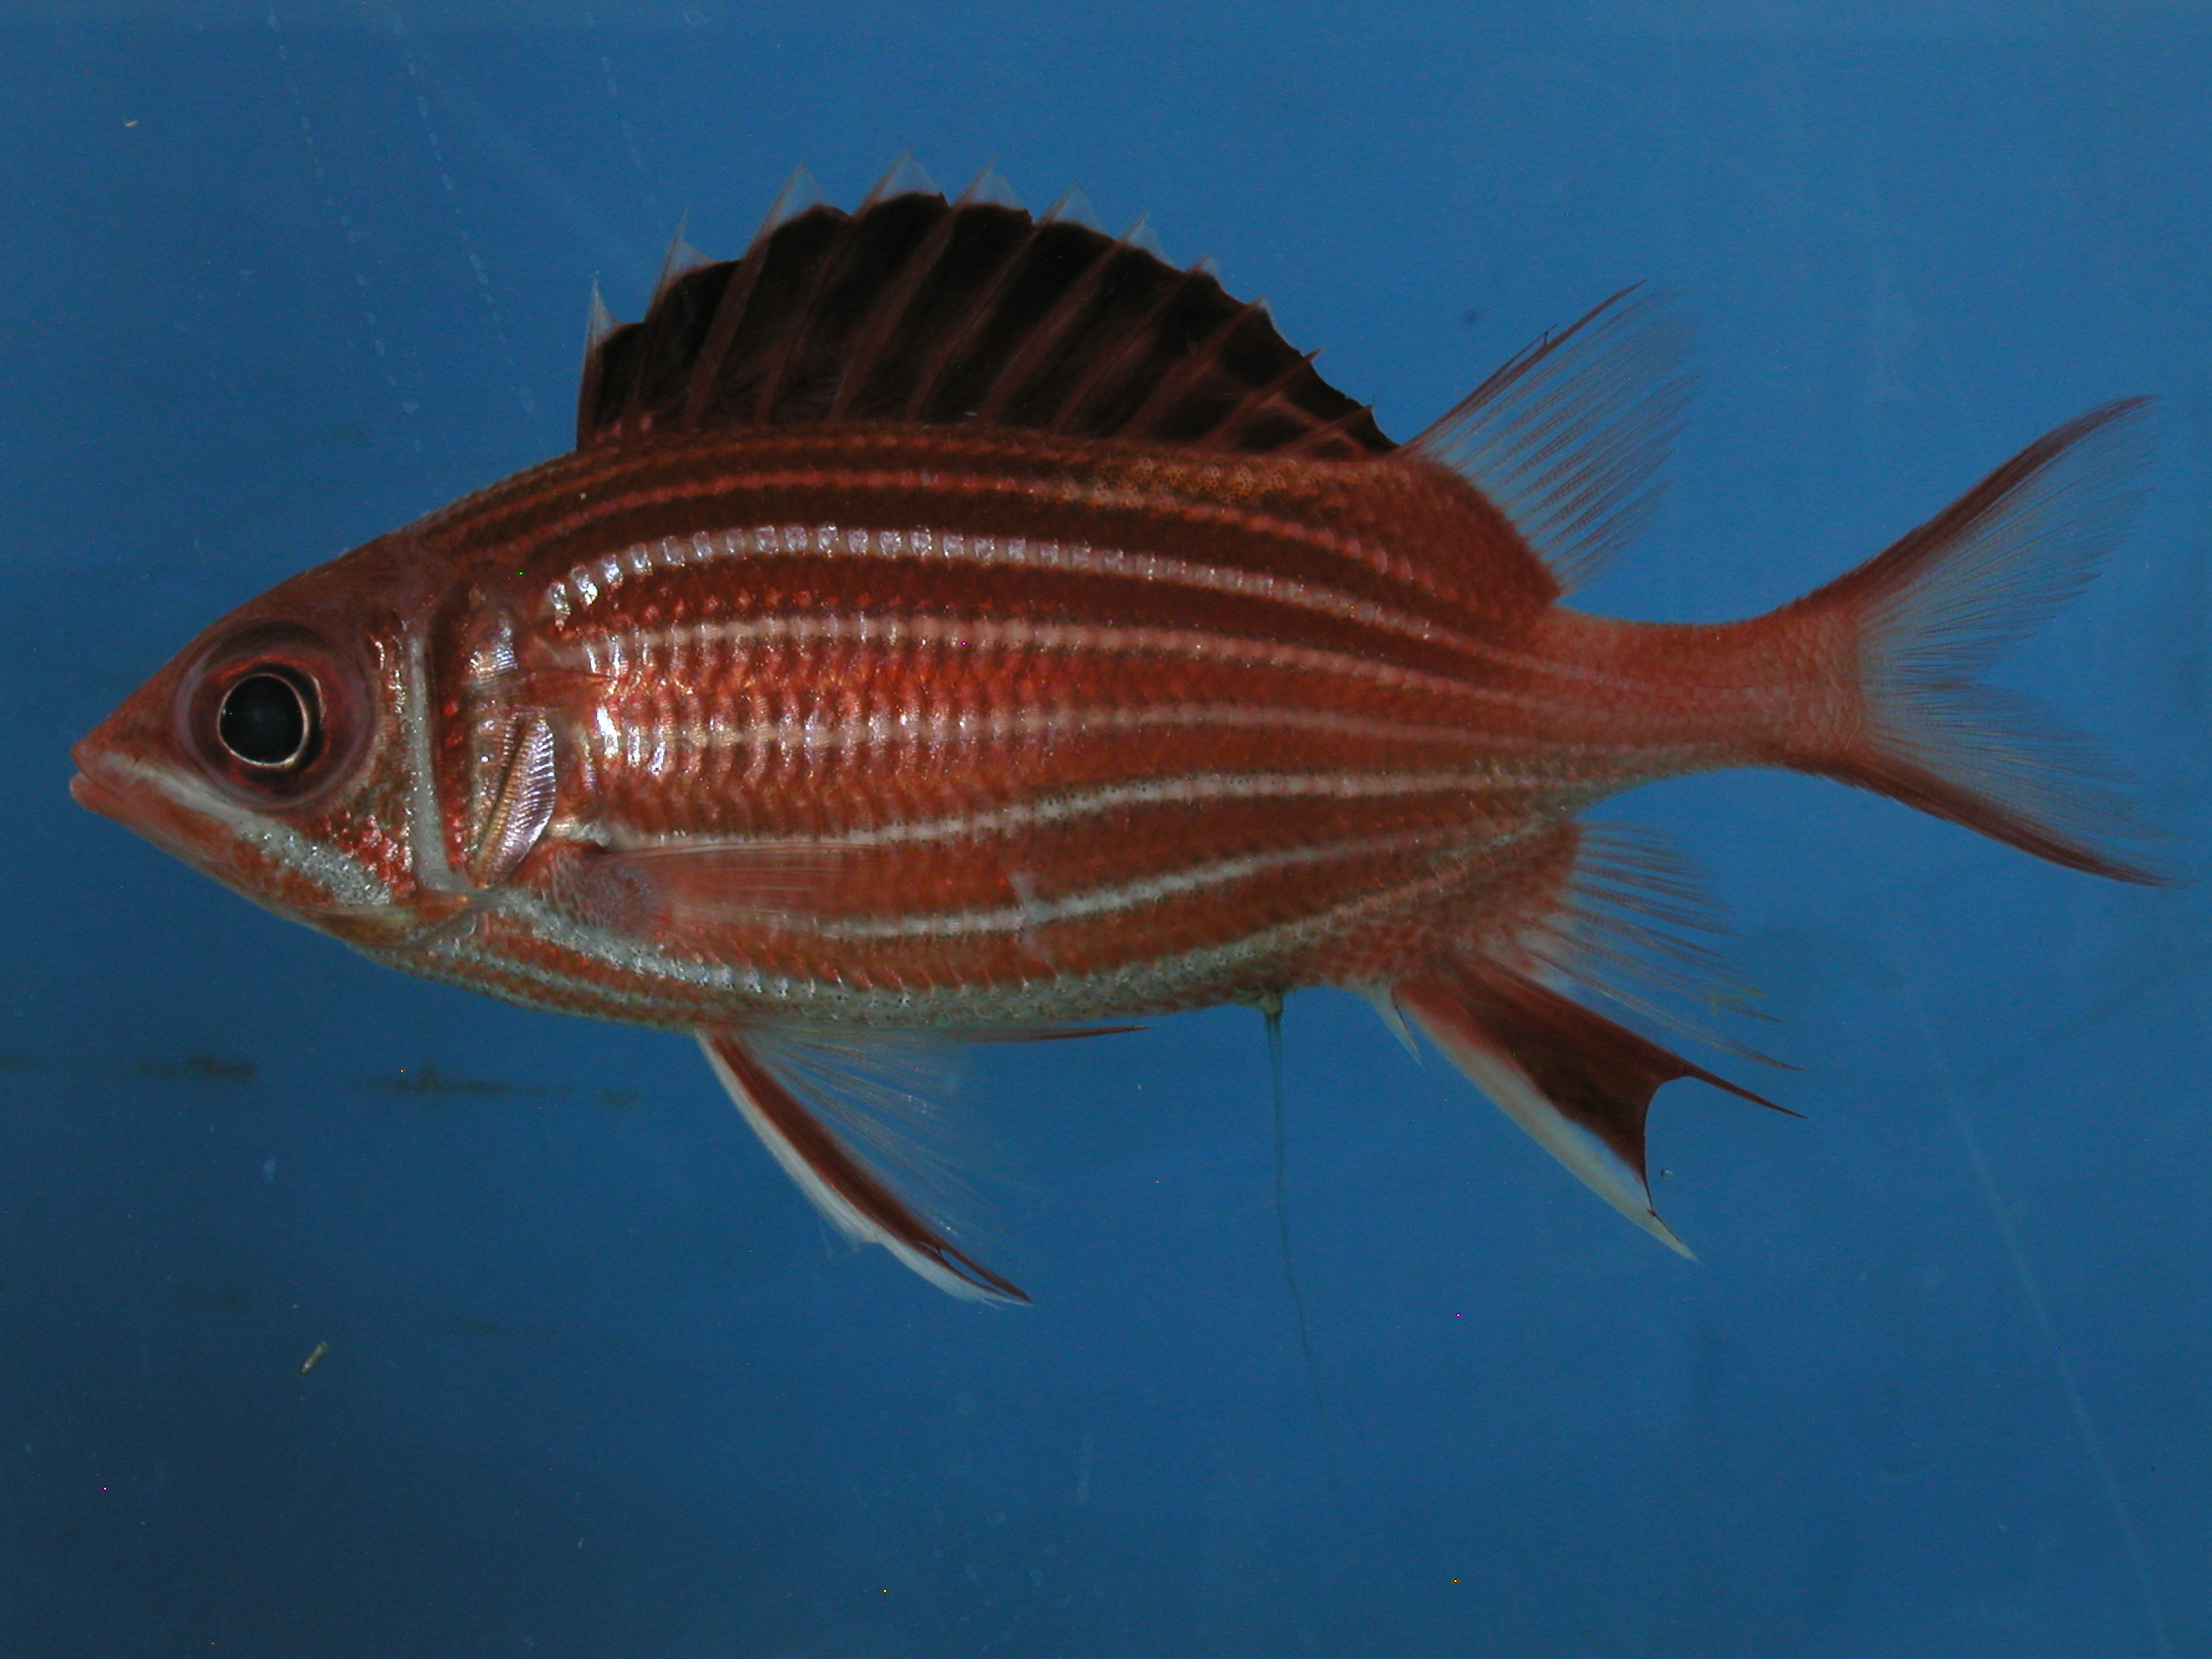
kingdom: Animalia
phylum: Chordata
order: Beryciformes
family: Holocentridae
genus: Sargocentron
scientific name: Sargocentron diadema
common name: Crown squirrelfish
